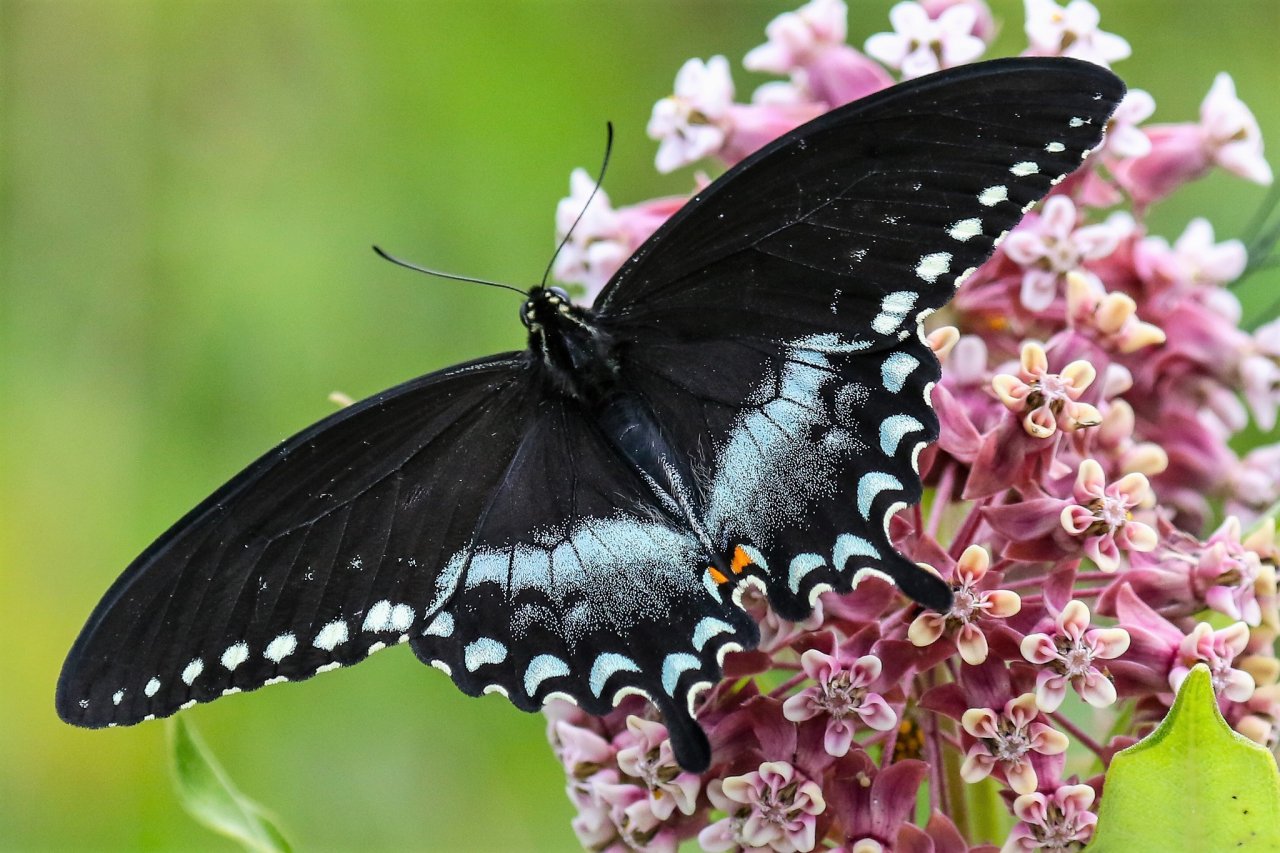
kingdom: Animalia
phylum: Arthropoda
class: Insecta
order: Lepidoptera
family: Papilionidae
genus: Pterourus
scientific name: Pterourus troilus
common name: Spicebush Swallowtail
